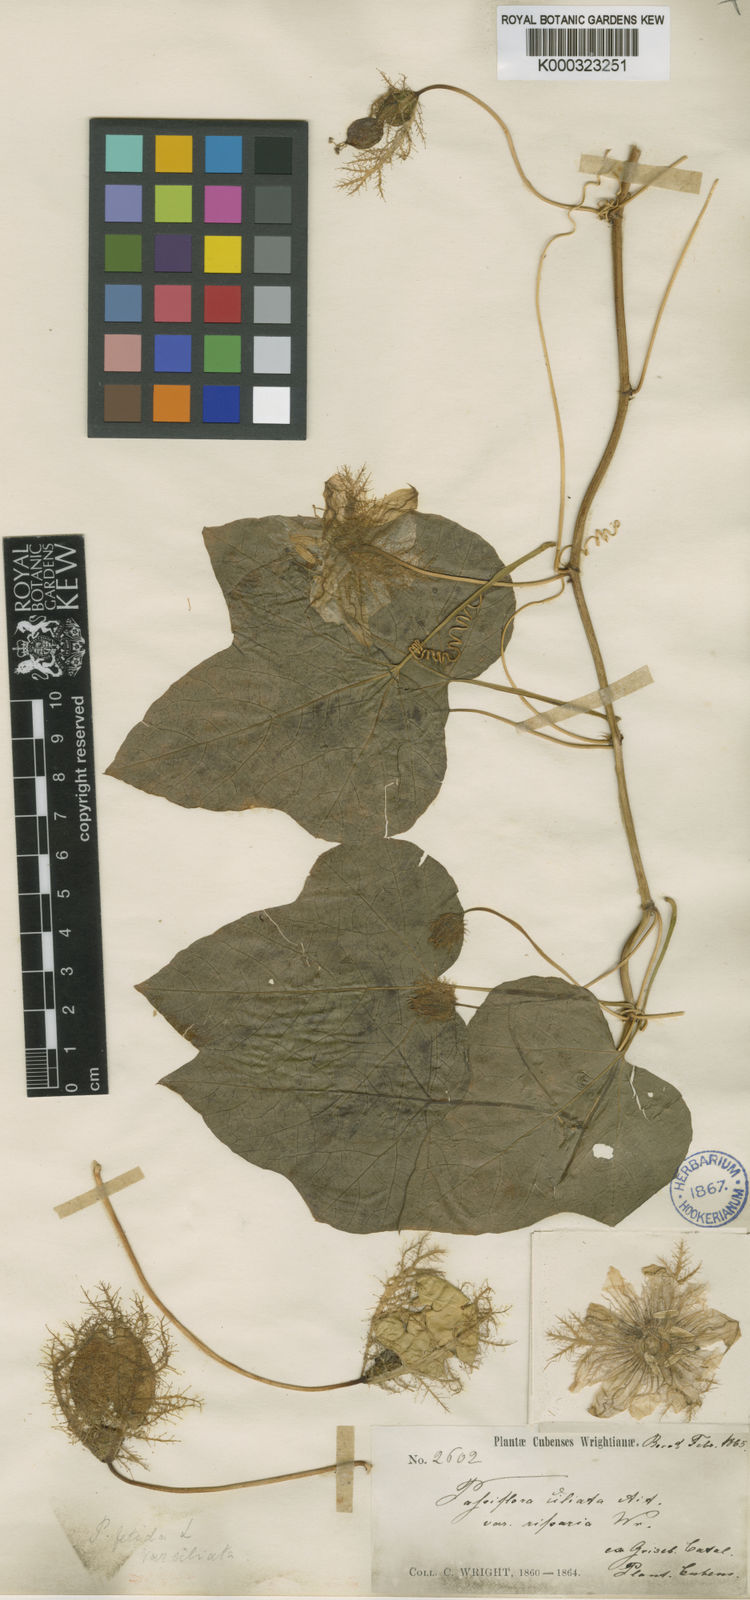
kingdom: Plantae
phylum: Tracheophyta
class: Magnoliopsida
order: Malpighiales
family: Passifloraceae
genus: Passiflora
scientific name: Passiflora ciliata
